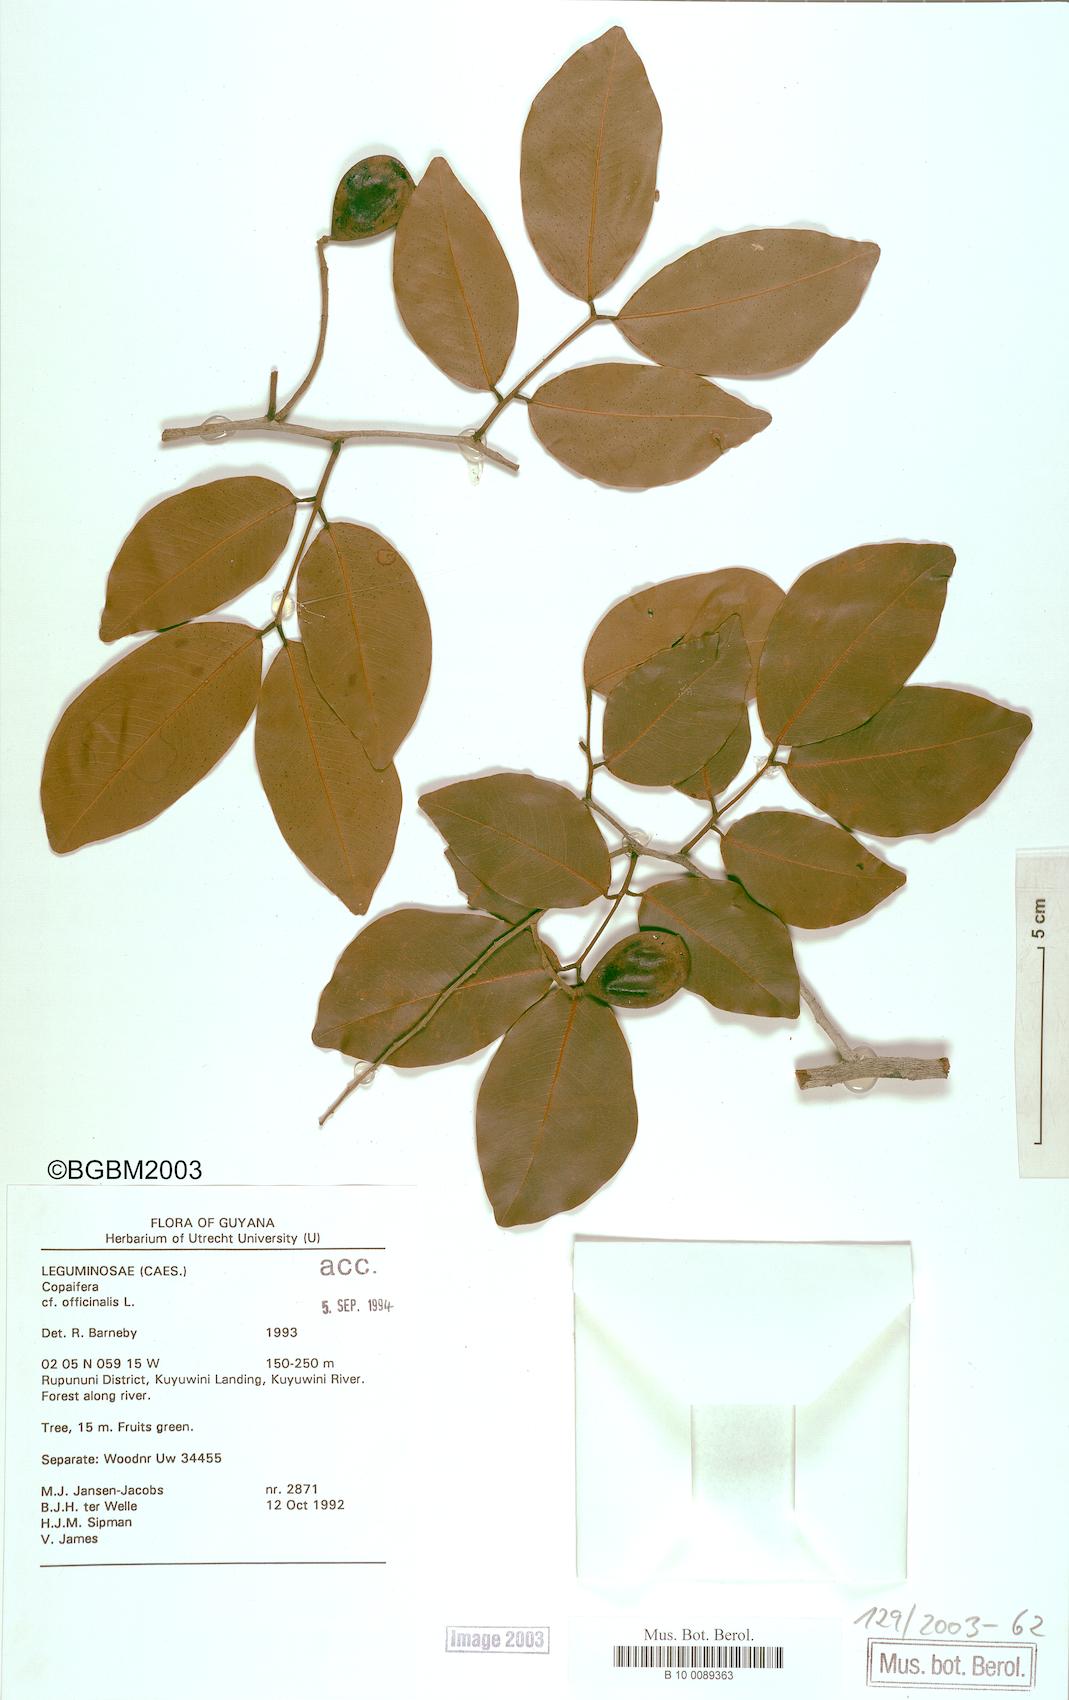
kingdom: Plantae
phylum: Tracheophyta
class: Magnoliopsida
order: Fabales
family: Fabaceae
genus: Copaifera
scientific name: Copaifera officinalis
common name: Copaiba
